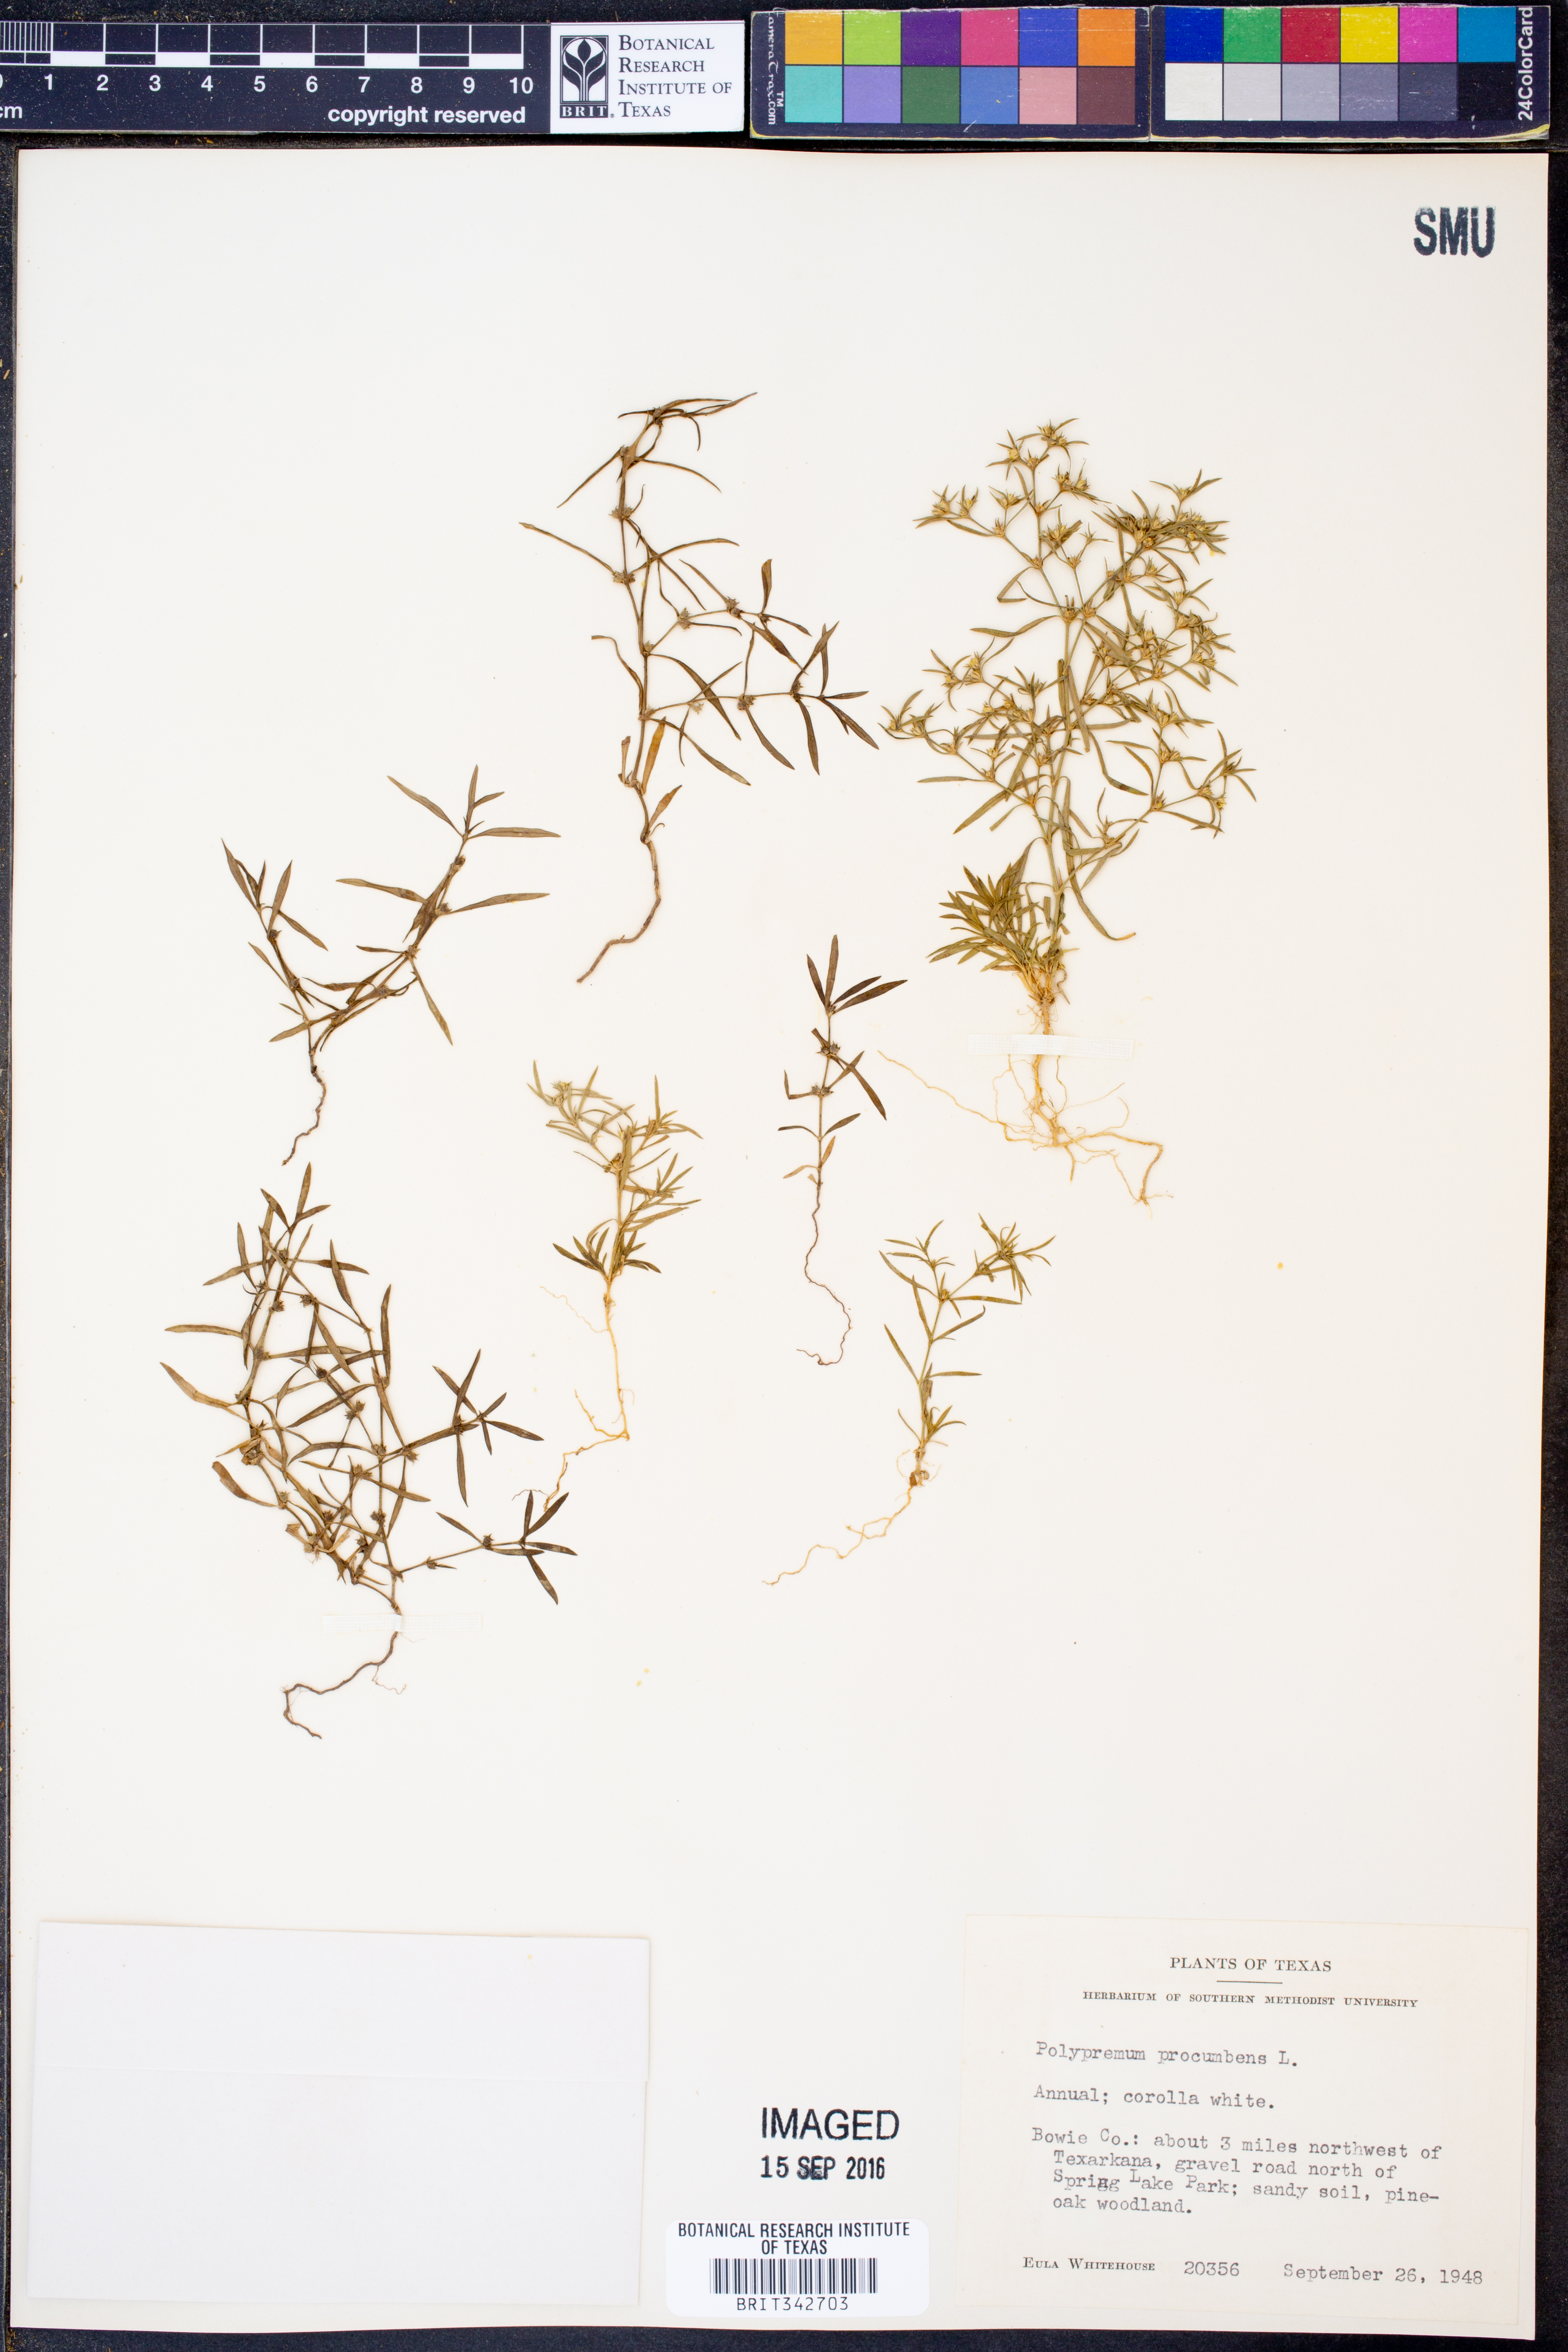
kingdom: Plantae
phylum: Tracheophyta
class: Magnoliopsida
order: Lamiales
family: Tetrachondraceae
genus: Polypremum
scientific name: Polypremum procumbens
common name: Juniper-leaf
